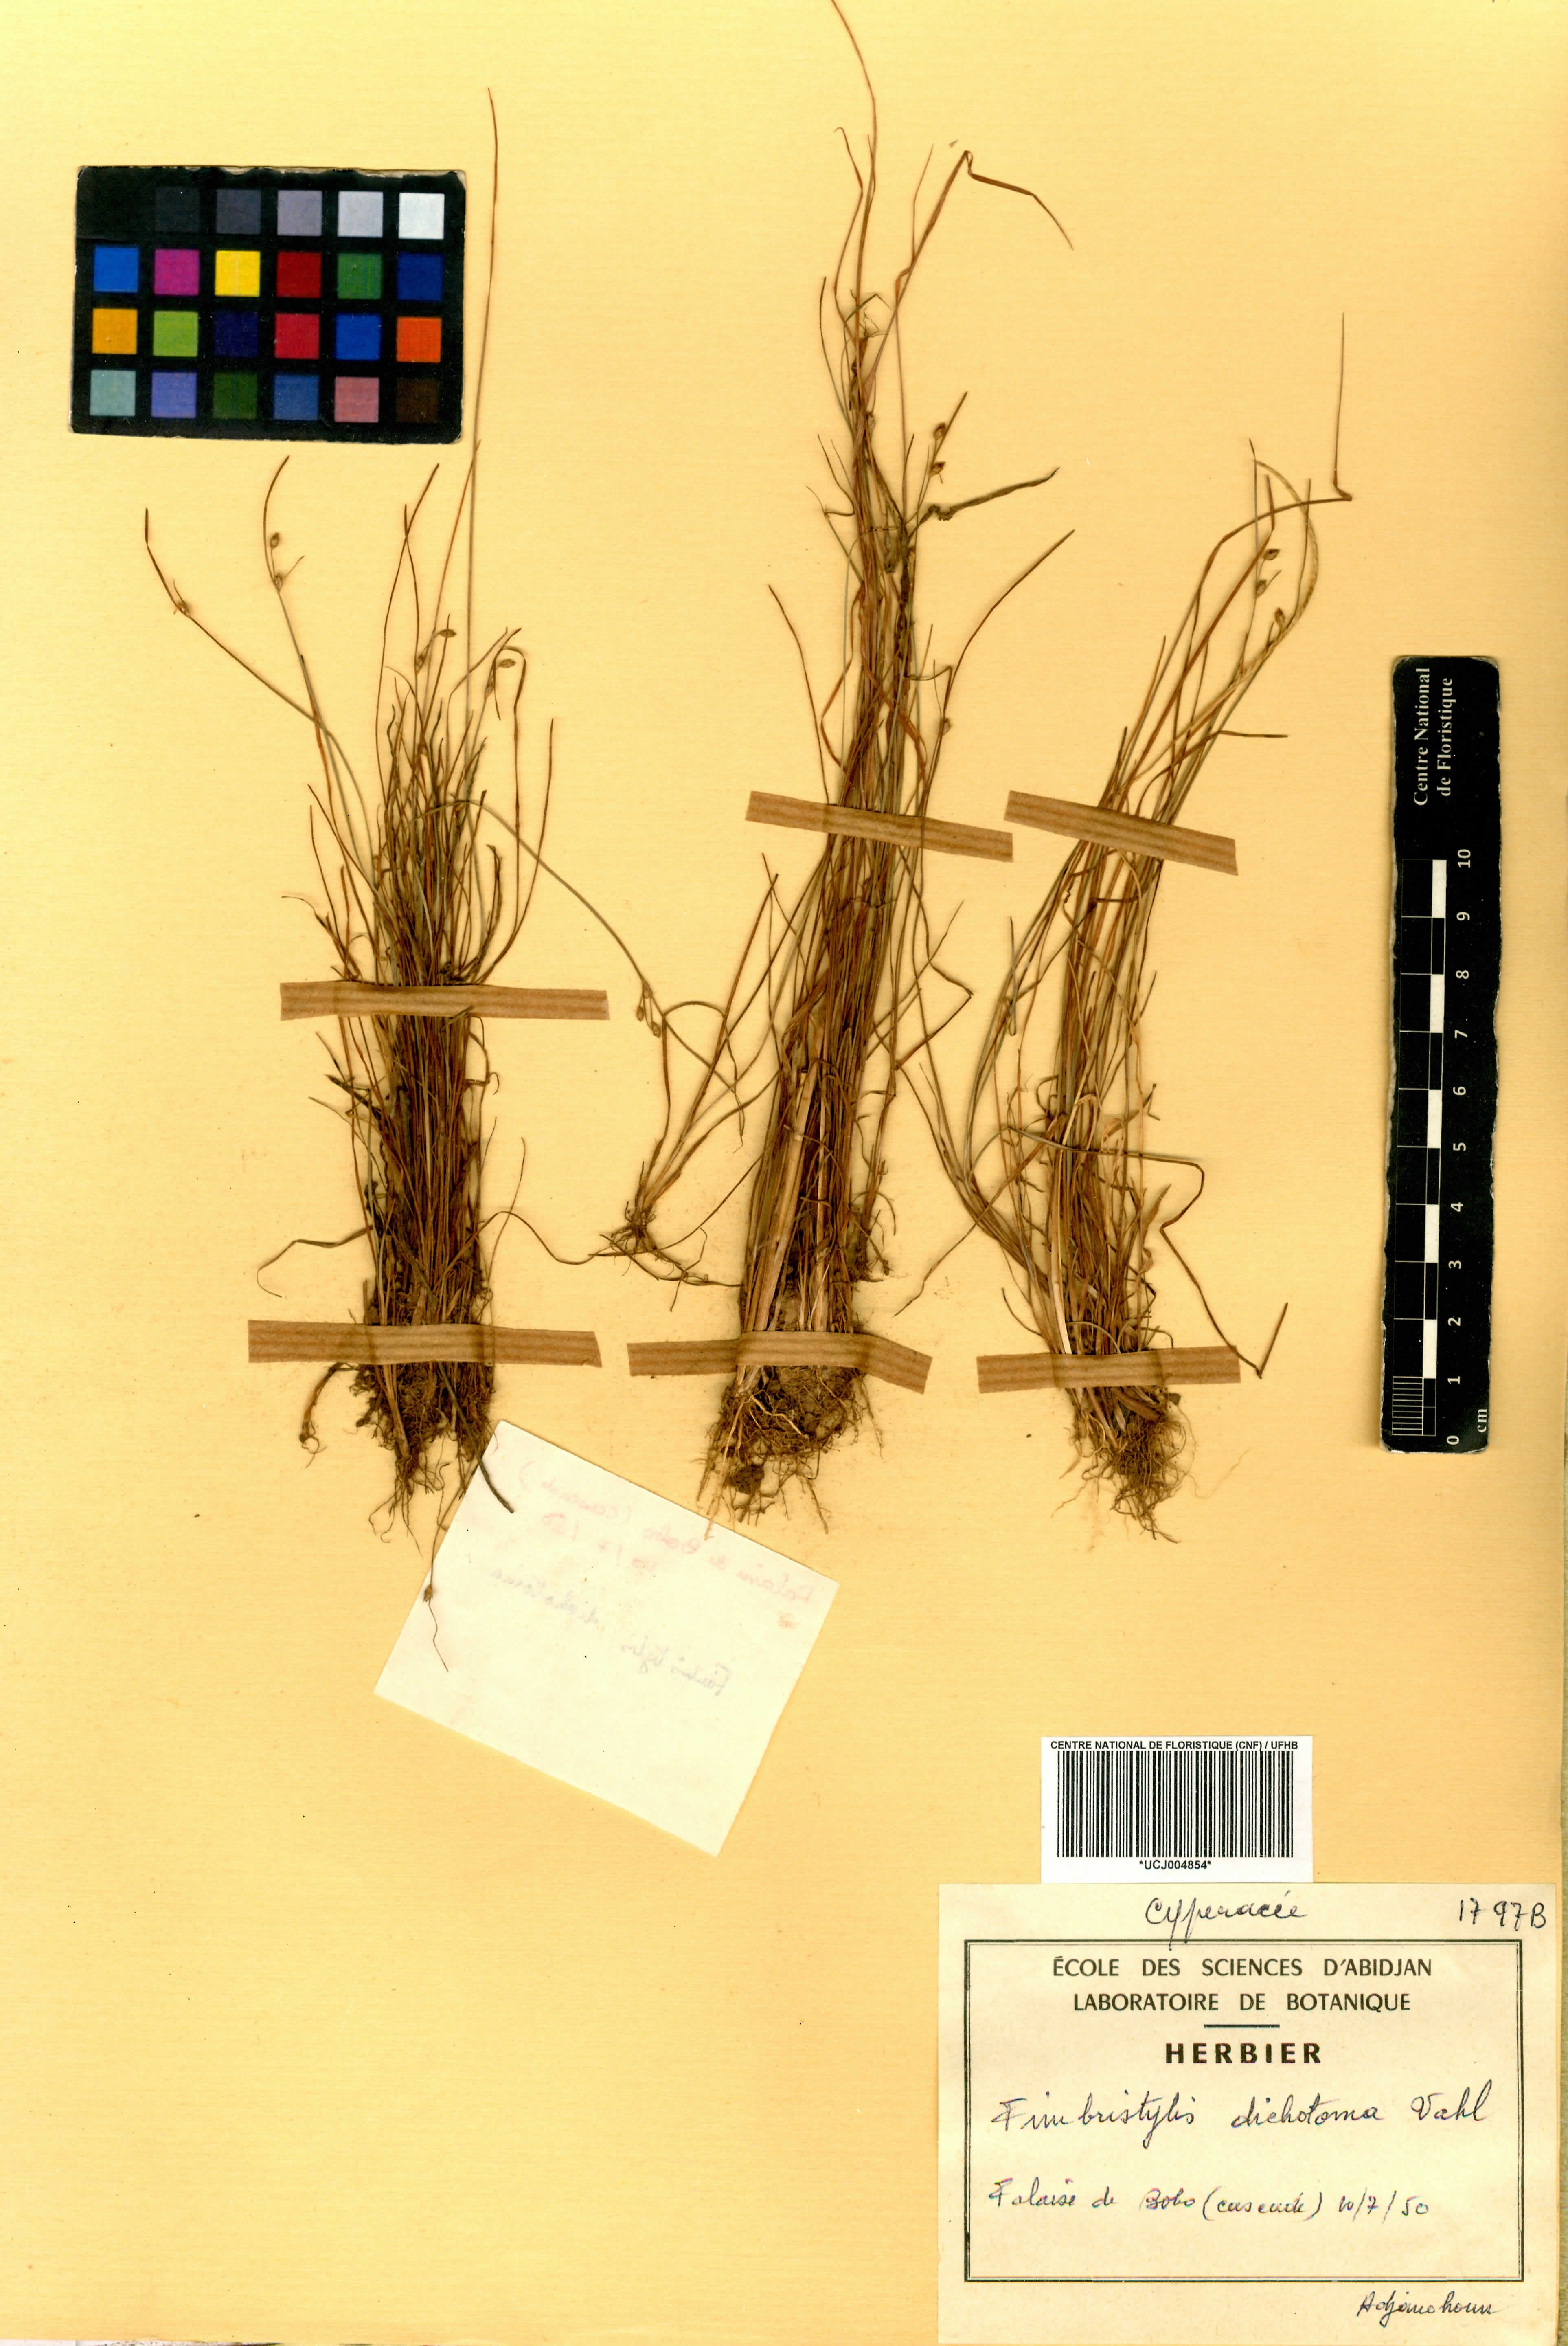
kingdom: Plantae
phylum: Tracheophyta
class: Liliopsida
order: Poales
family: Cyperaceae
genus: Fimbristylis
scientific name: Fimbristylis dichotoma
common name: Forked fimbry
